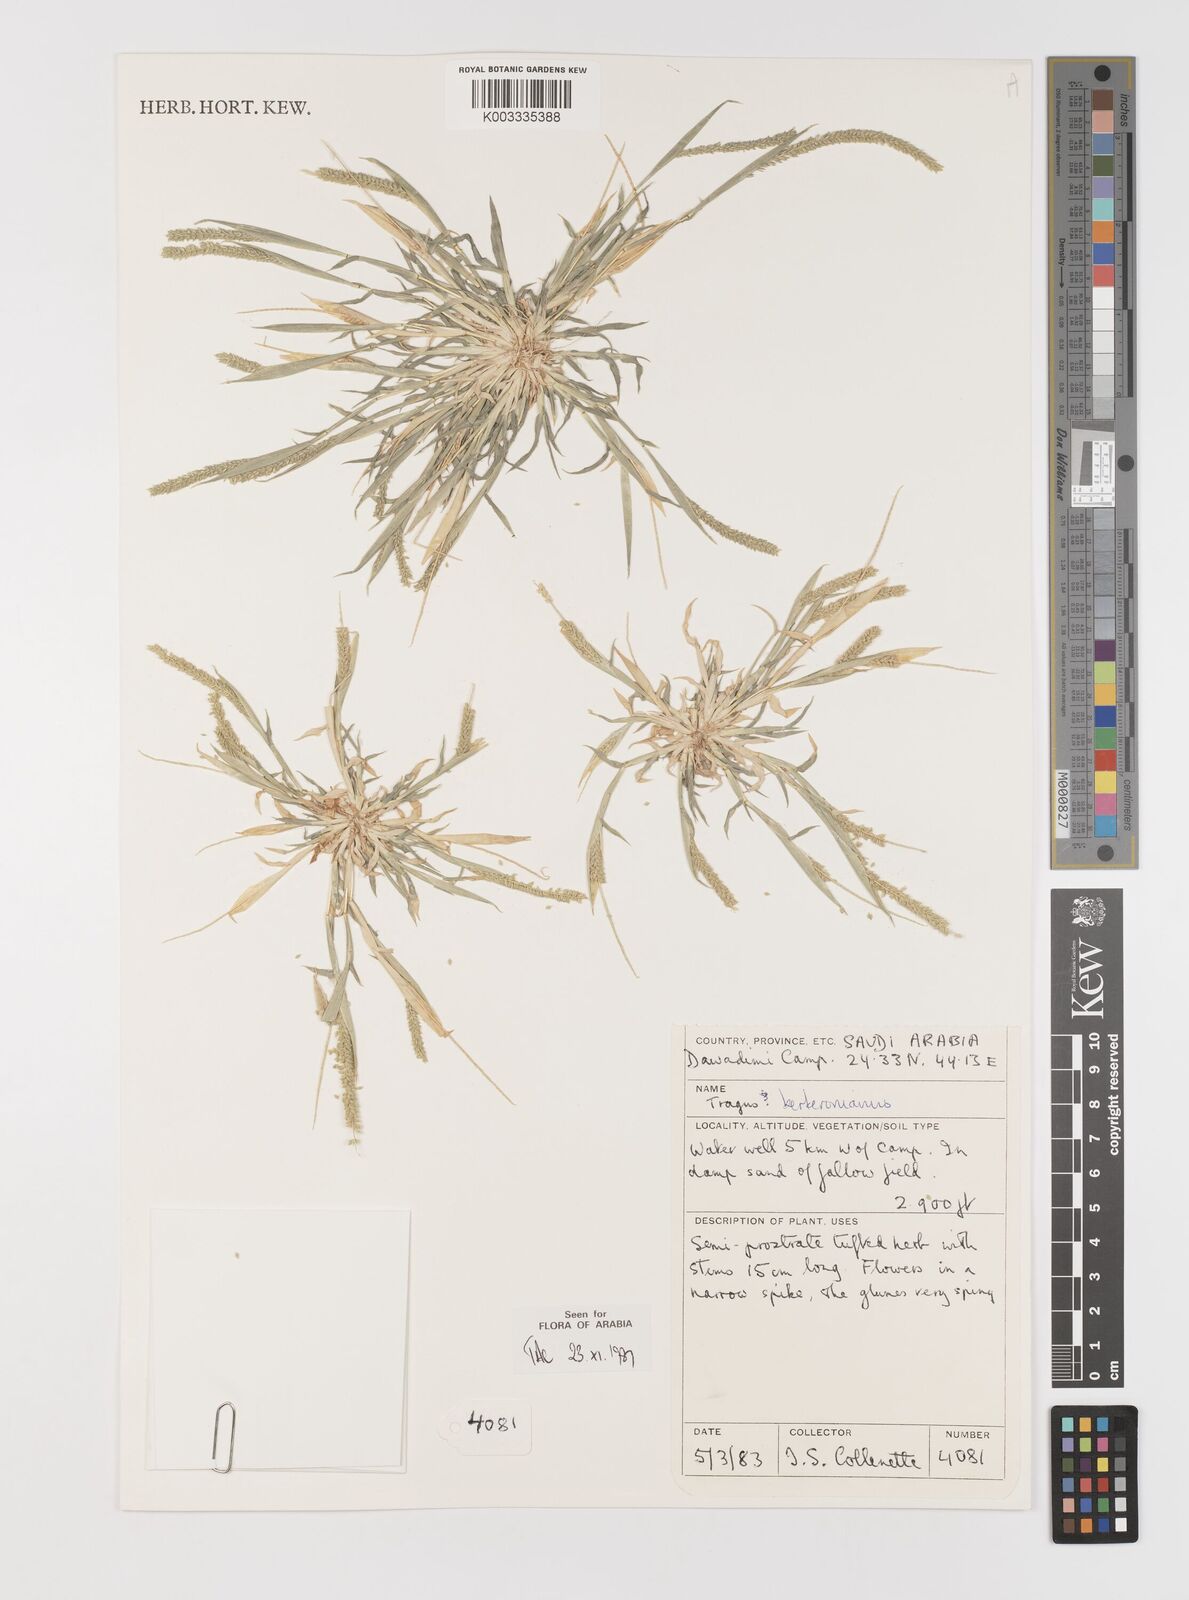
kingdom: Plantae
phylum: Tracheophyta
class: Liliopsida
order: Poales
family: Poaceae
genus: Tragus
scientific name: Tragus berteronianus
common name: African bur-grass
